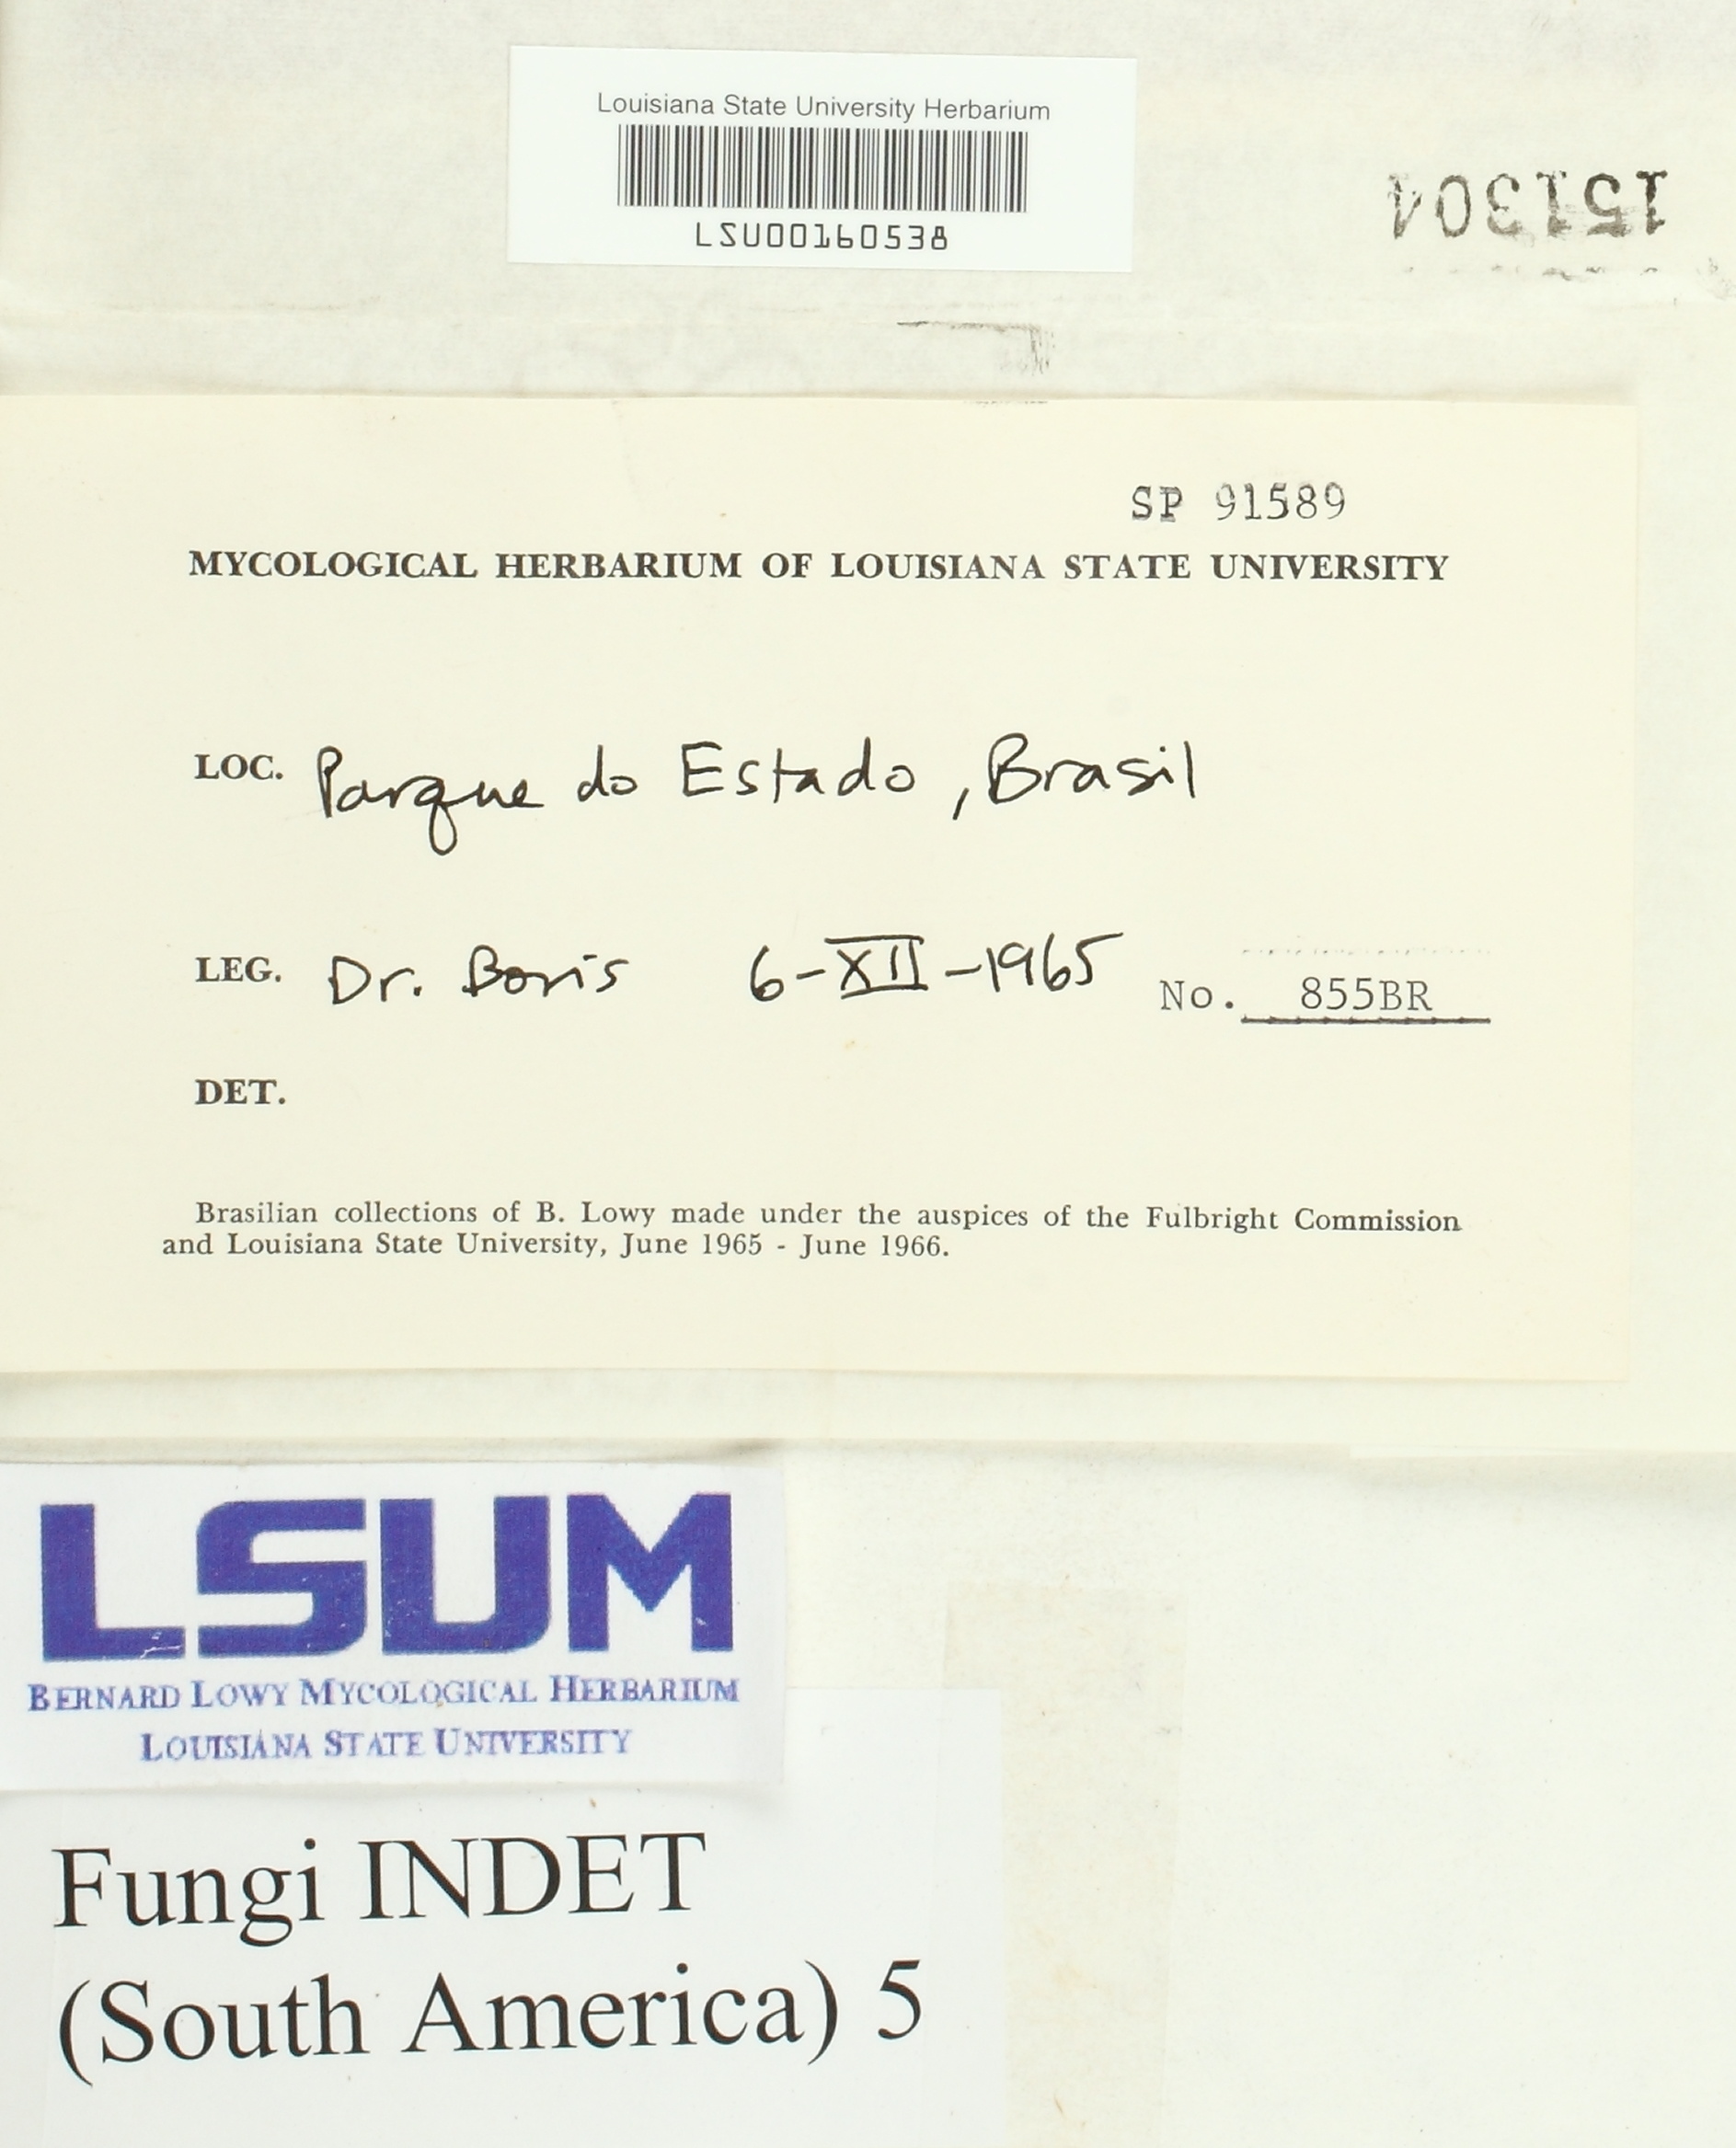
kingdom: Fungi
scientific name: Fungi
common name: Fungi
